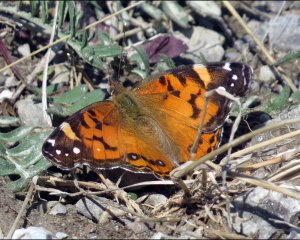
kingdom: Animalia
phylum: Arthropoda
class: Insecta
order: Lepidoptera
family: Nymphalidae
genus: Vanessa
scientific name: Vanessa virginiensis
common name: American Lady
